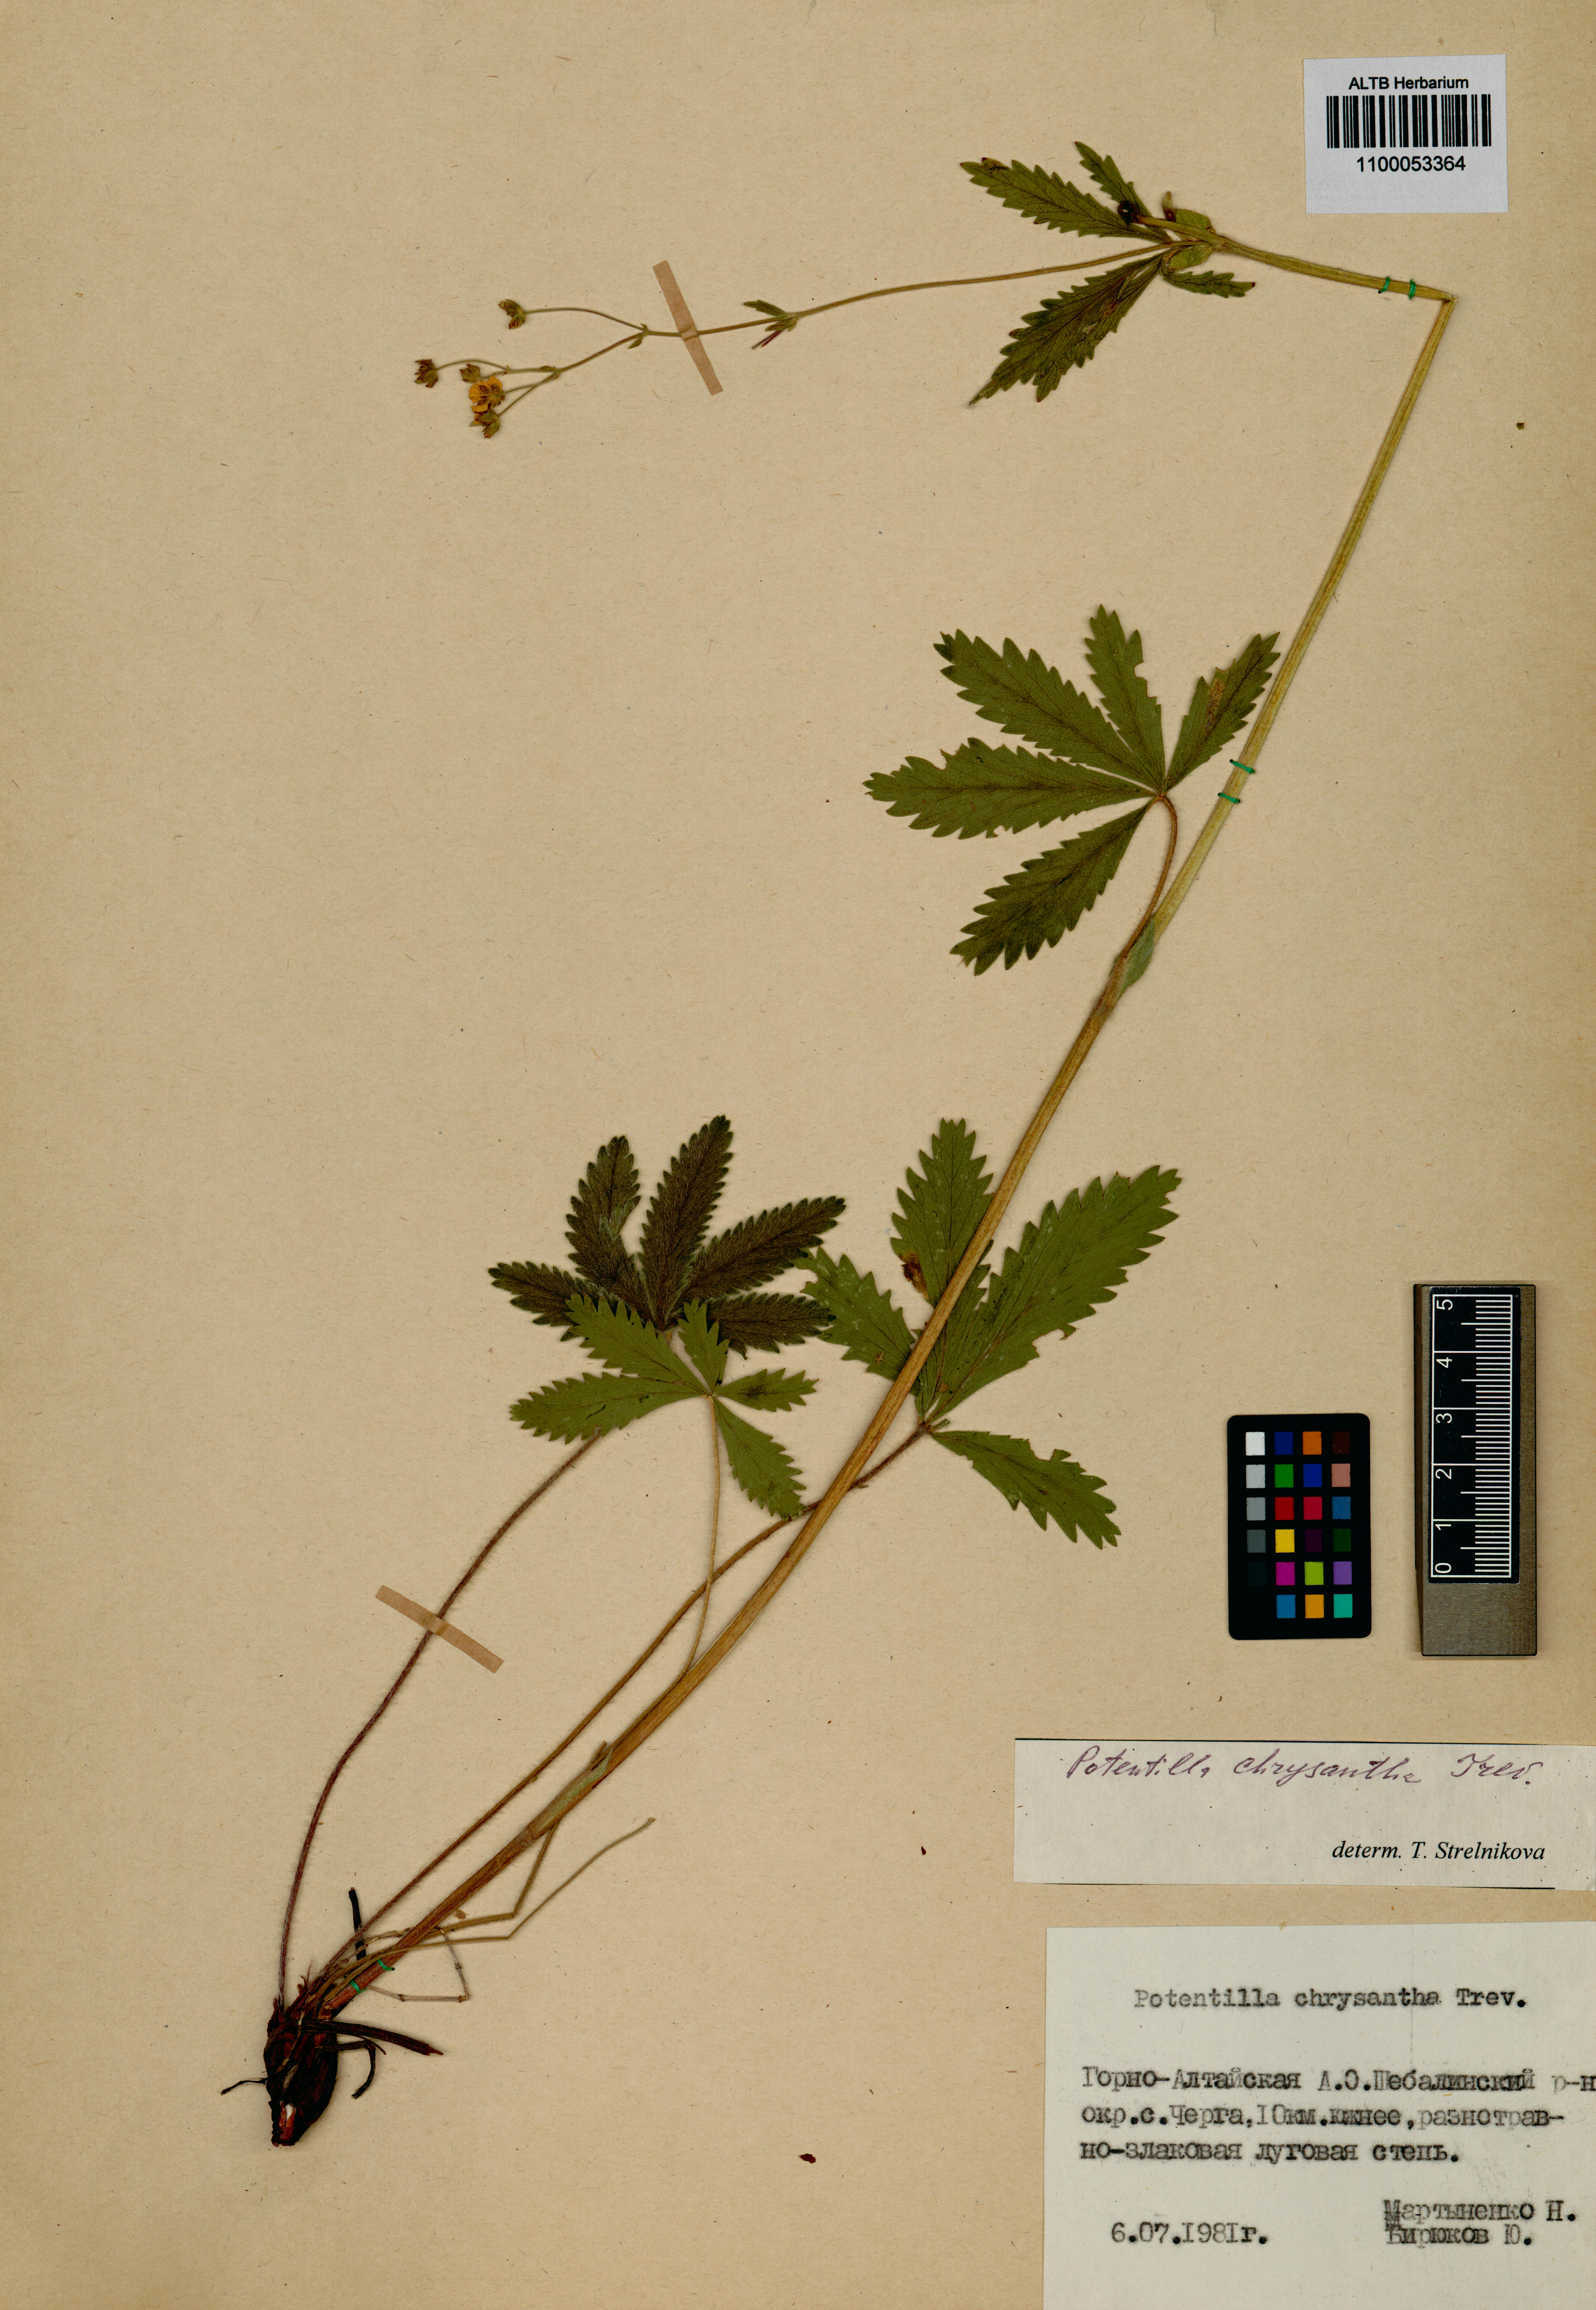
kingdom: Plantae
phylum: Tracheophyta
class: Magnoliopsida
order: Rosales
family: Rosaceae
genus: Potentilla
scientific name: Potentilla chrysantha
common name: Thuringian cinquefoil
